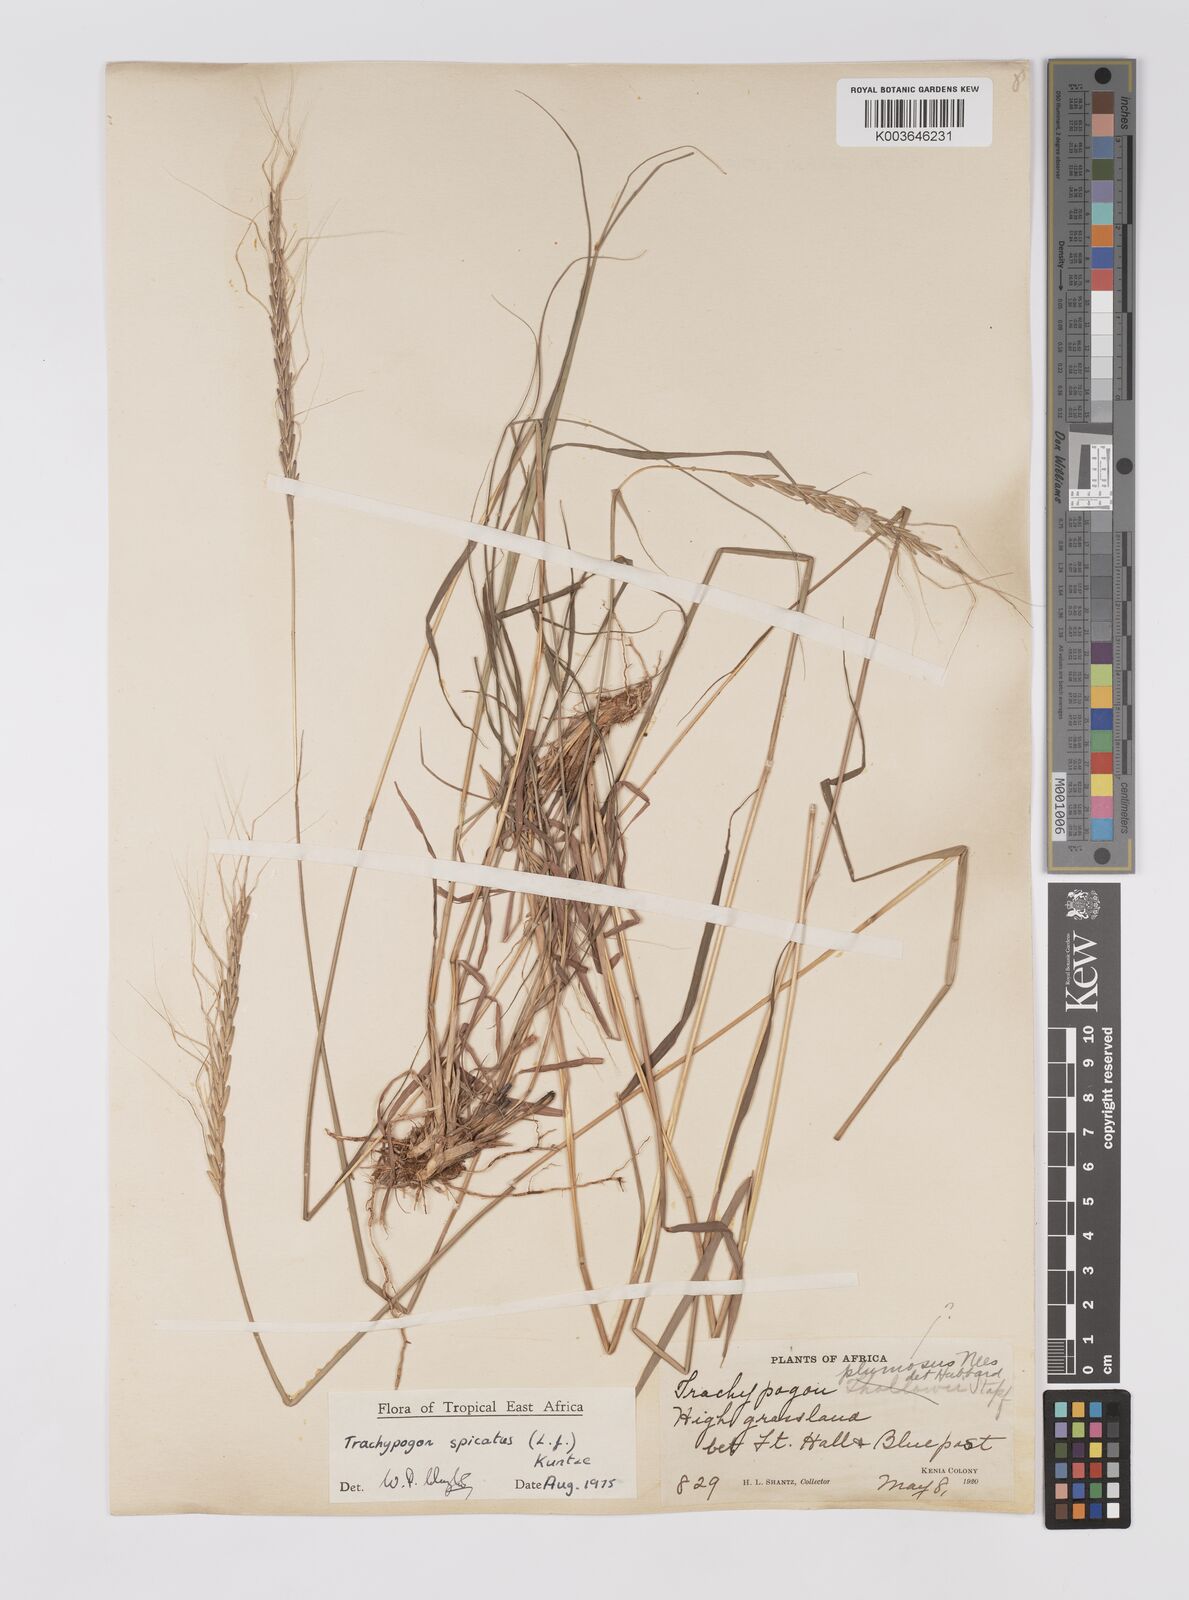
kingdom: Plantae
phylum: Tracheophyta
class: Liliopsida
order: Poales
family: Poaceae
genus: Trachypogon
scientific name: Trachypogon spicatus
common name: Crinkle-awn
